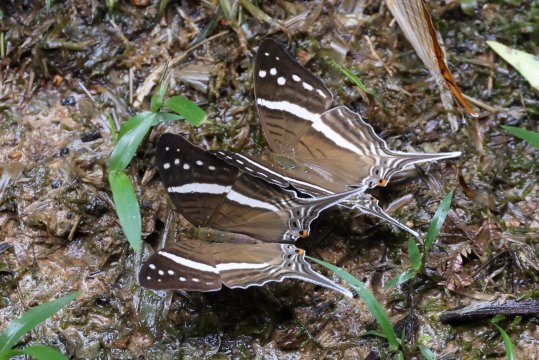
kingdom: Animalia
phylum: Arthropoda
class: Insecta
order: Lepidoptera
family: Nymphalidae
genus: Marpesia
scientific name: Marpesia
